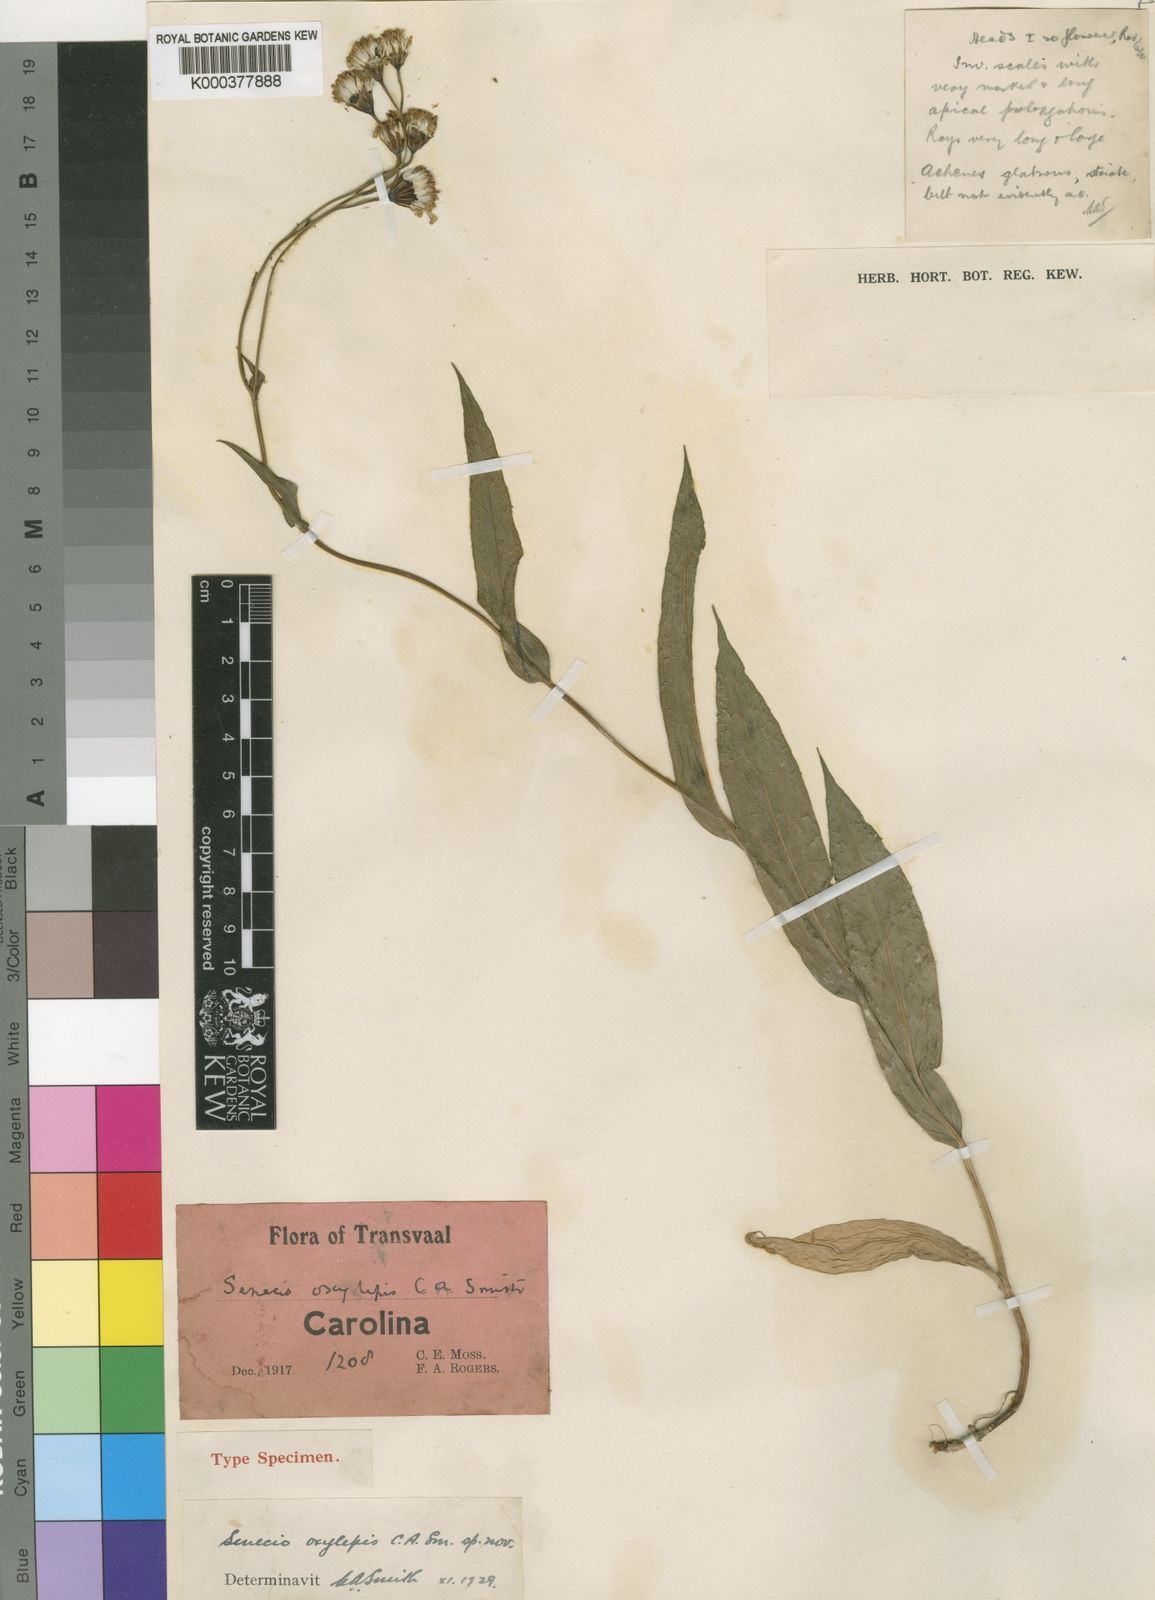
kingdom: Plantae
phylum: Tracheophyta
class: Magnoliopsida
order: Asterales
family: Asteraceae
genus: Senecio
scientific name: Senecio venosus
